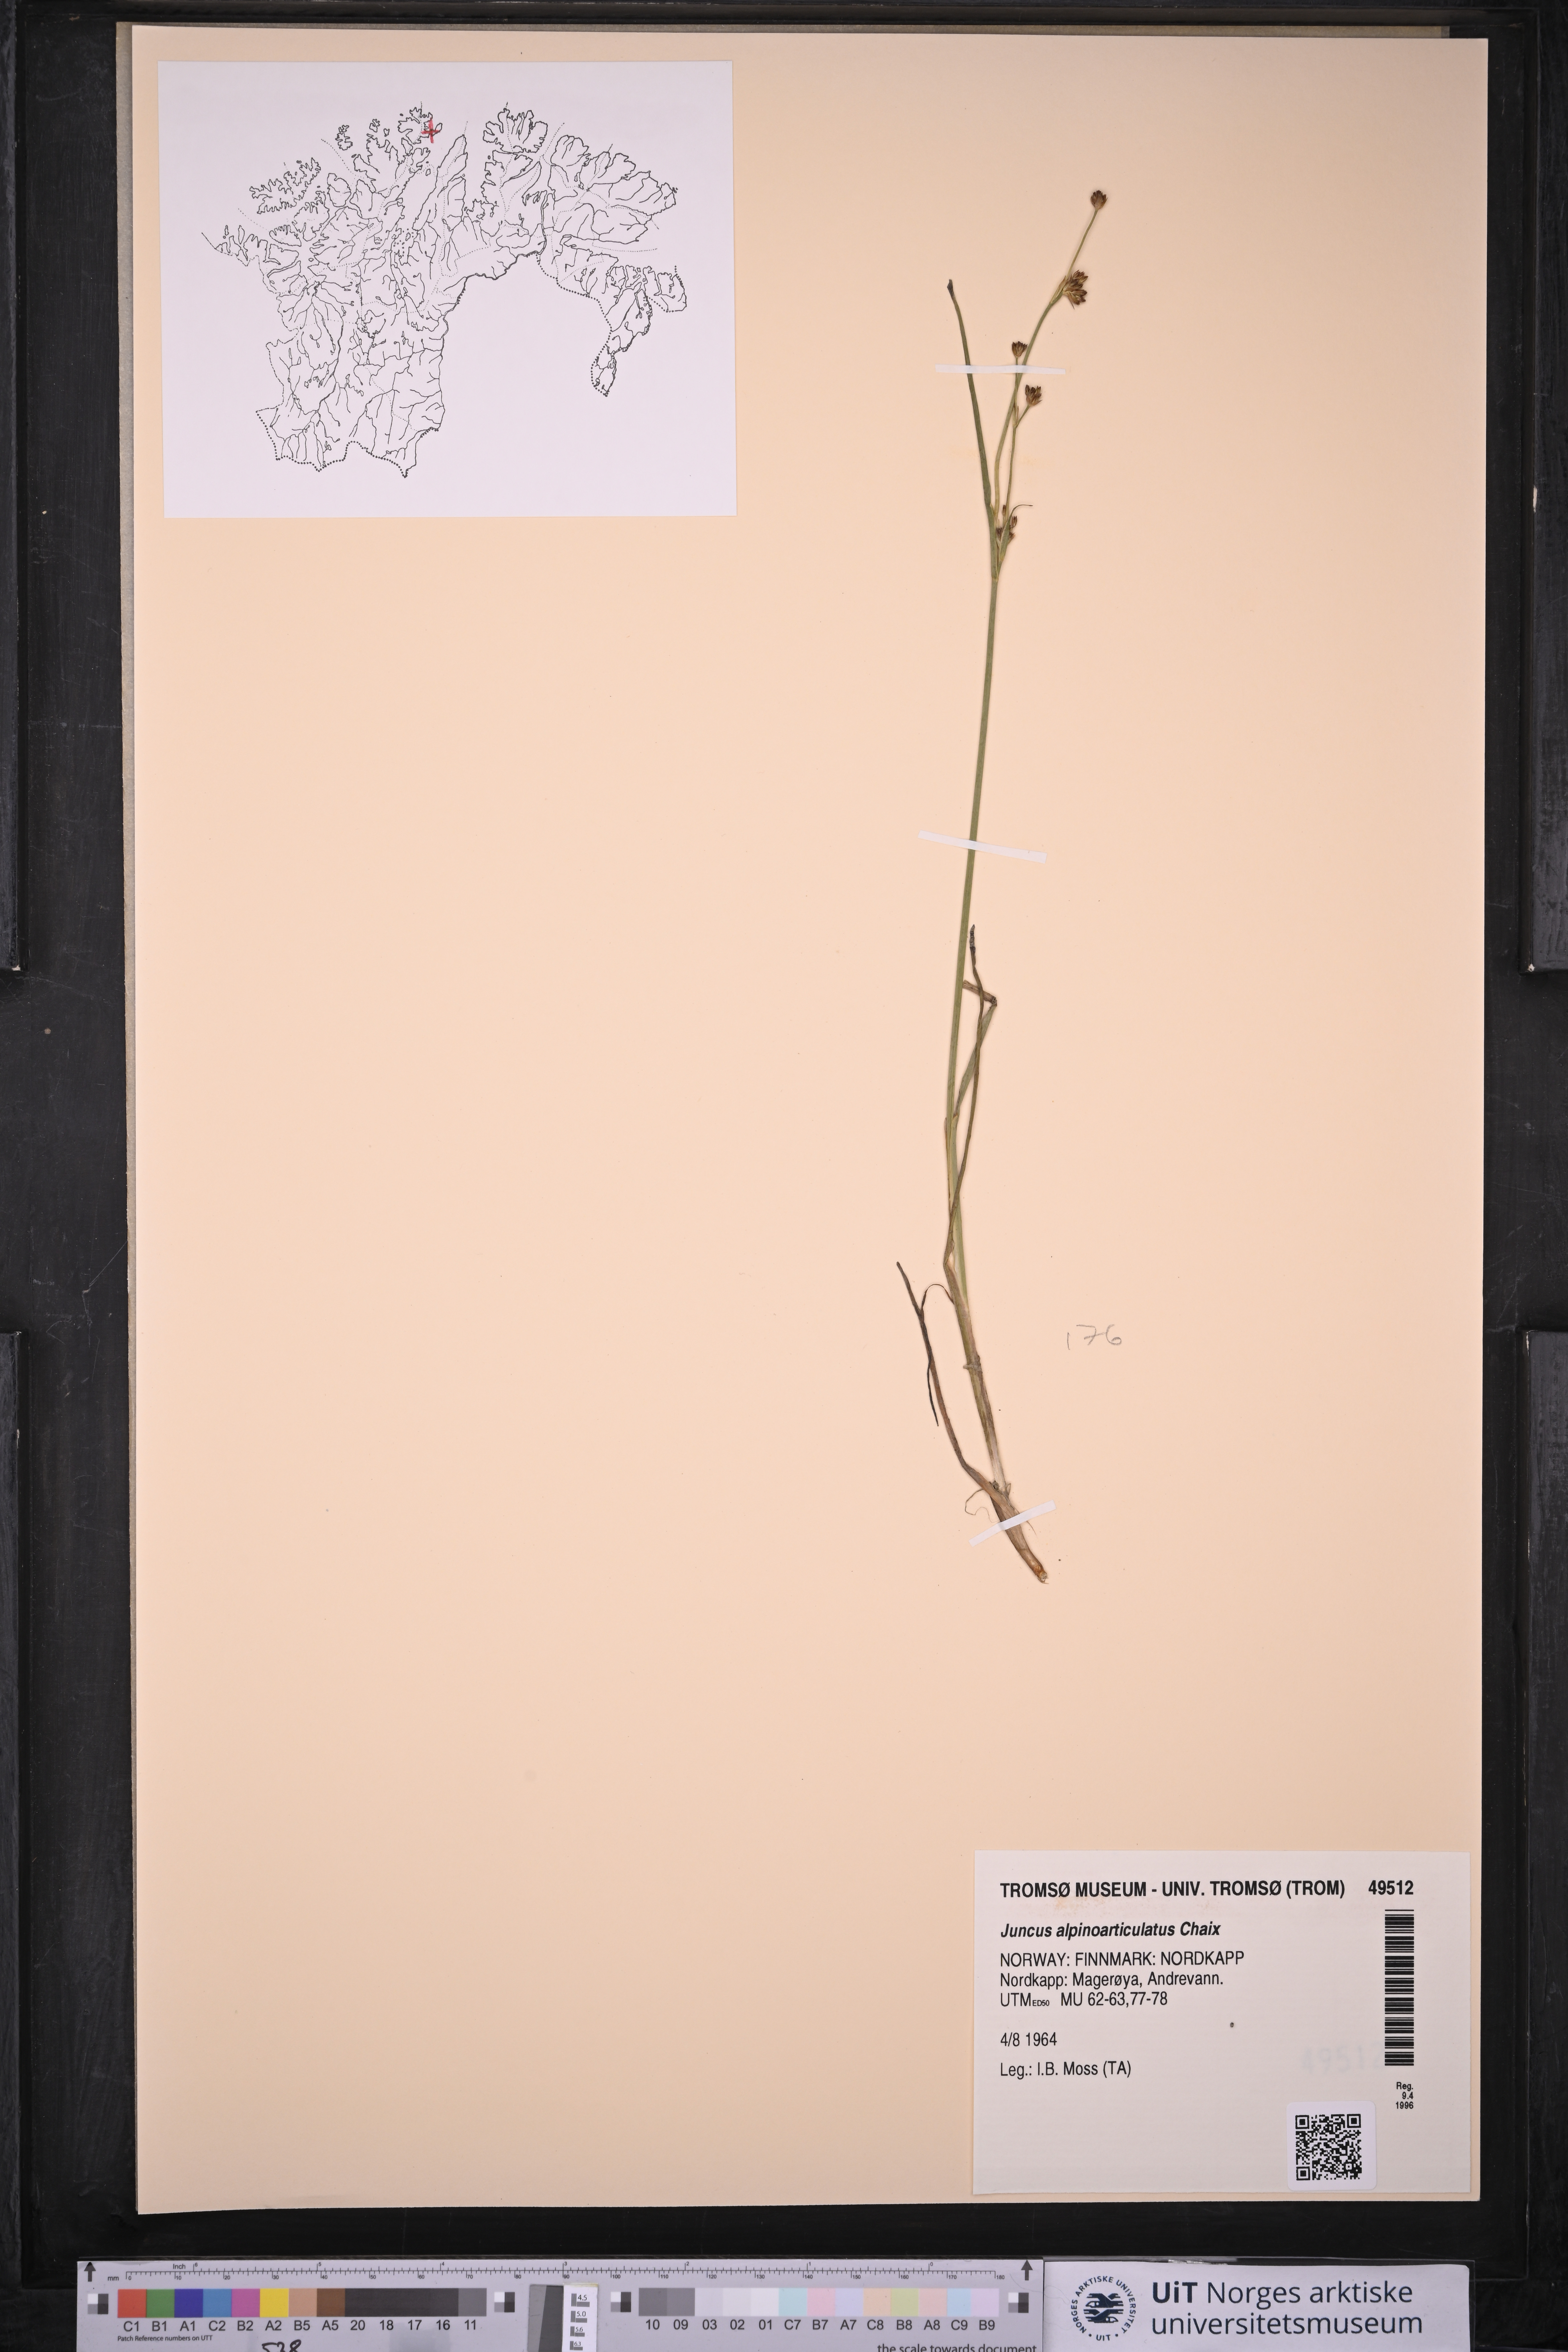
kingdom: Plantae
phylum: Tracheophyta
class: Liliopsida
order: Poales
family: Juncaceae
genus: Juncus
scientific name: Juncus alpinoarticulatus
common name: Alpine rush
